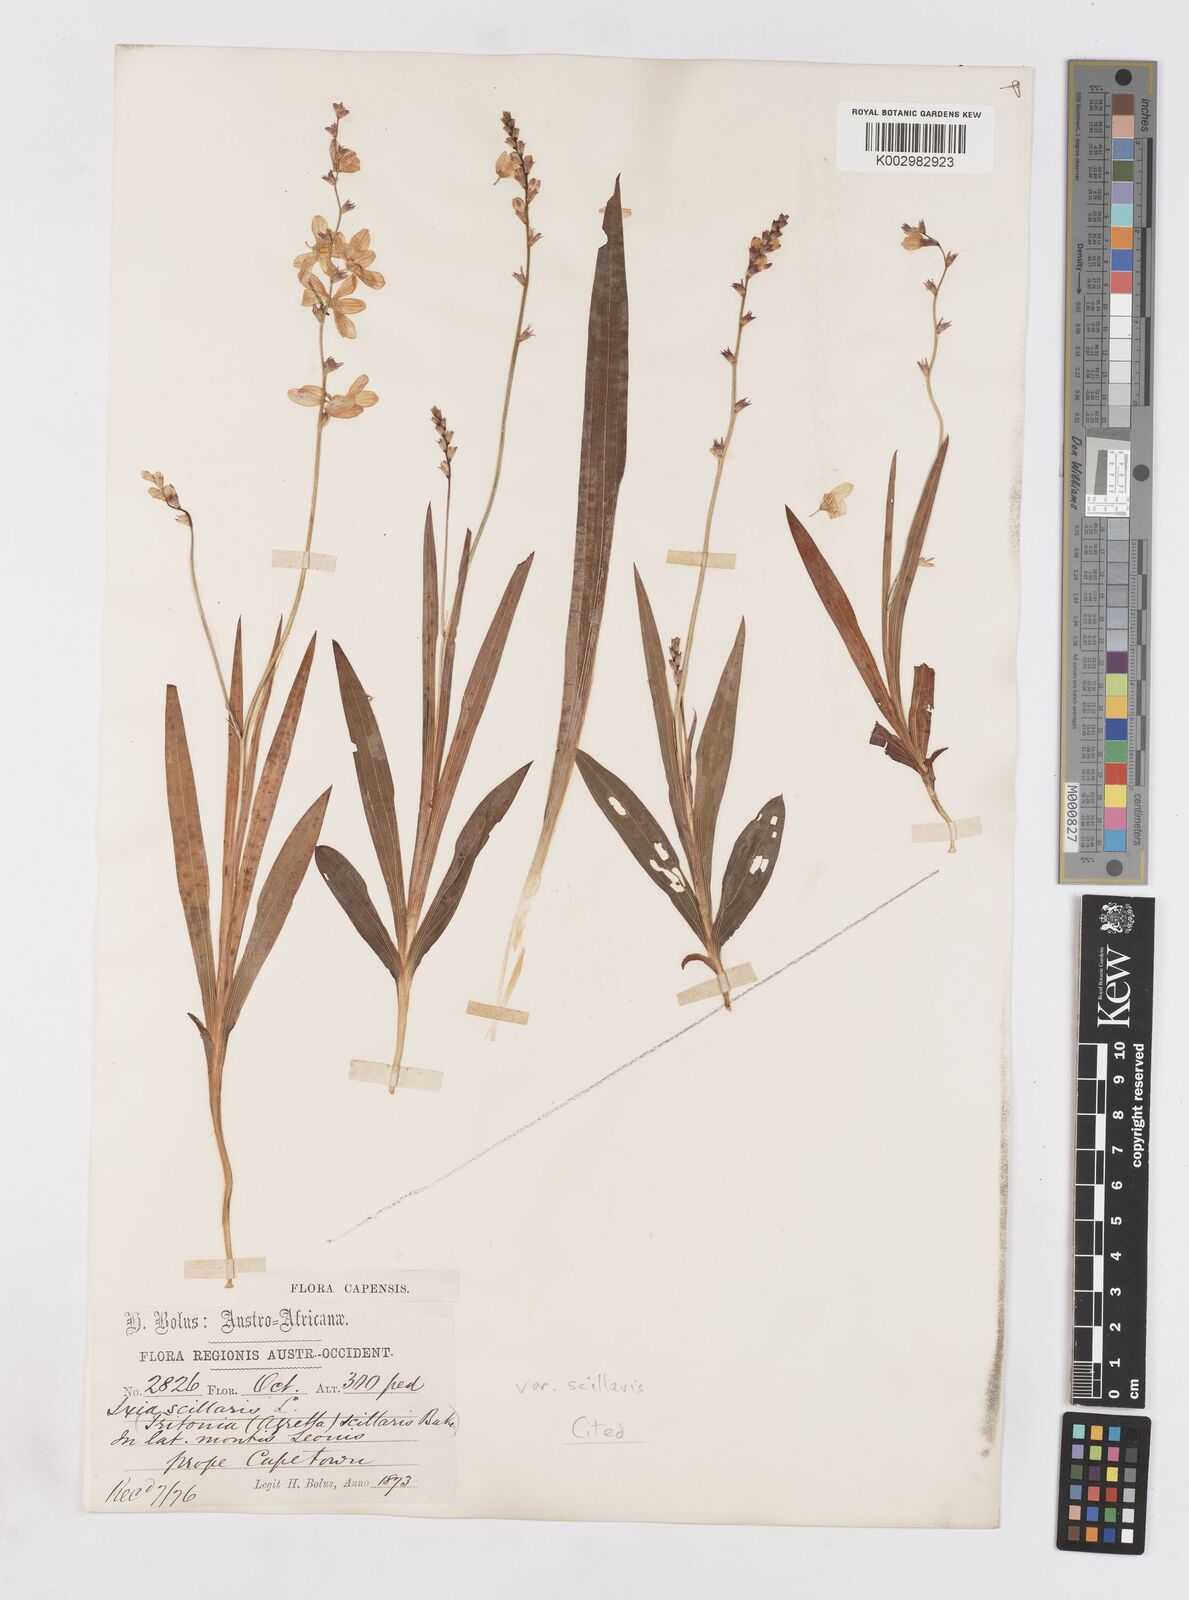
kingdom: Plantae
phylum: Tracheophyta
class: Liliopsida
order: Asparagales
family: Iridaceae
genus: Ixia
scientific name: Ixia scillaris
